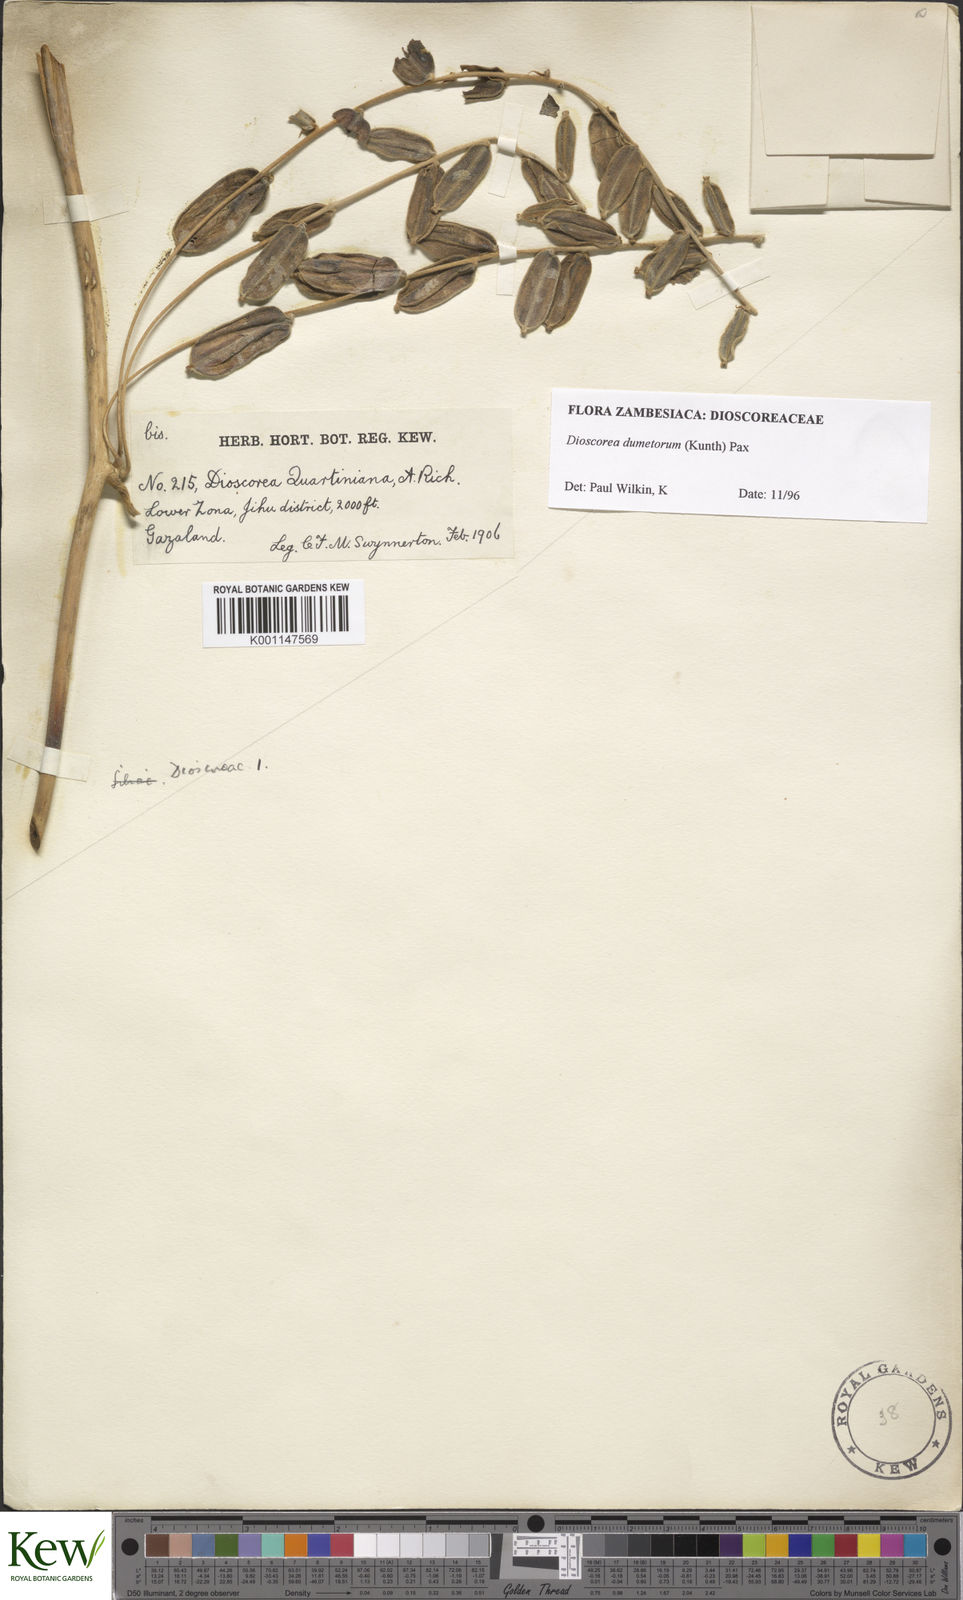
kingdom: Plantae
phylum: Tracheophyta
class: Liliopsida
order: Dioscoreales
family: Dioscoreaceae
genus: Dioscorea
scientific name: Dioscorea dumetorum
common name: African bitter yam
